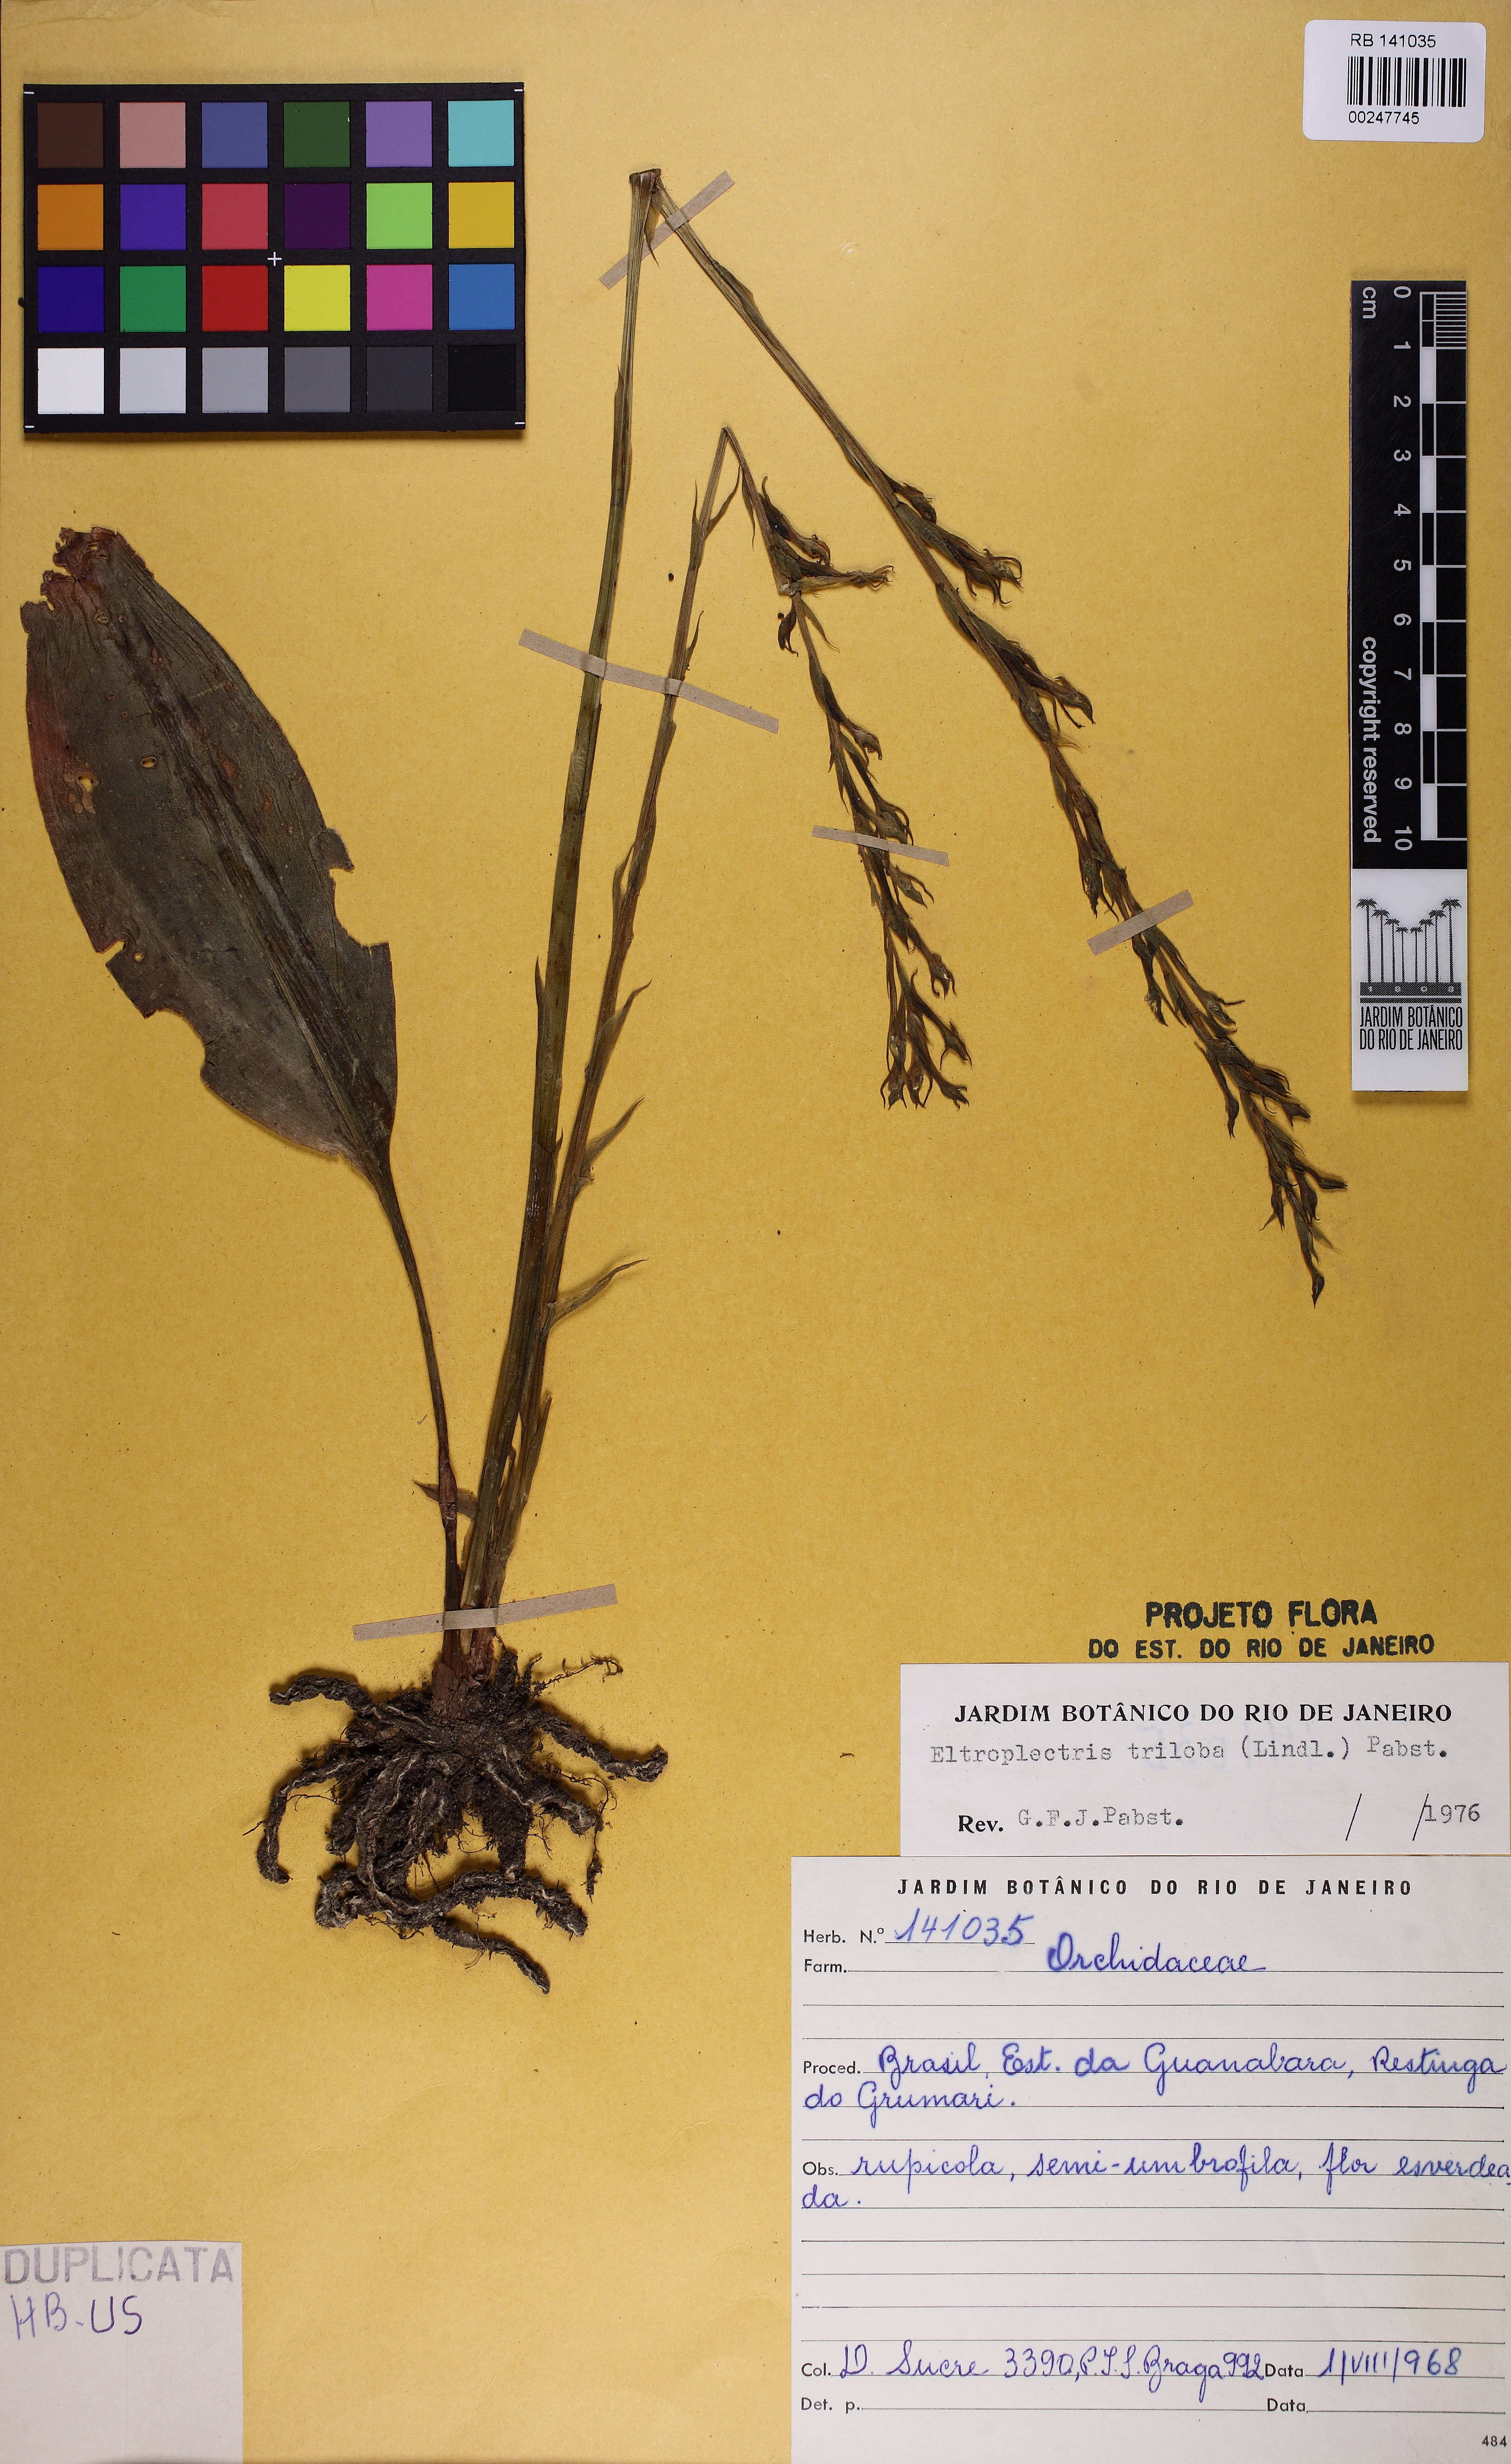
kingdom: Plantae
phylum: Tracheophyta
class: Liliopsida
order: Asparagales
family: Orchidaceae
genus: Eltroplectris
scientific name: Eltroplectris triloba
